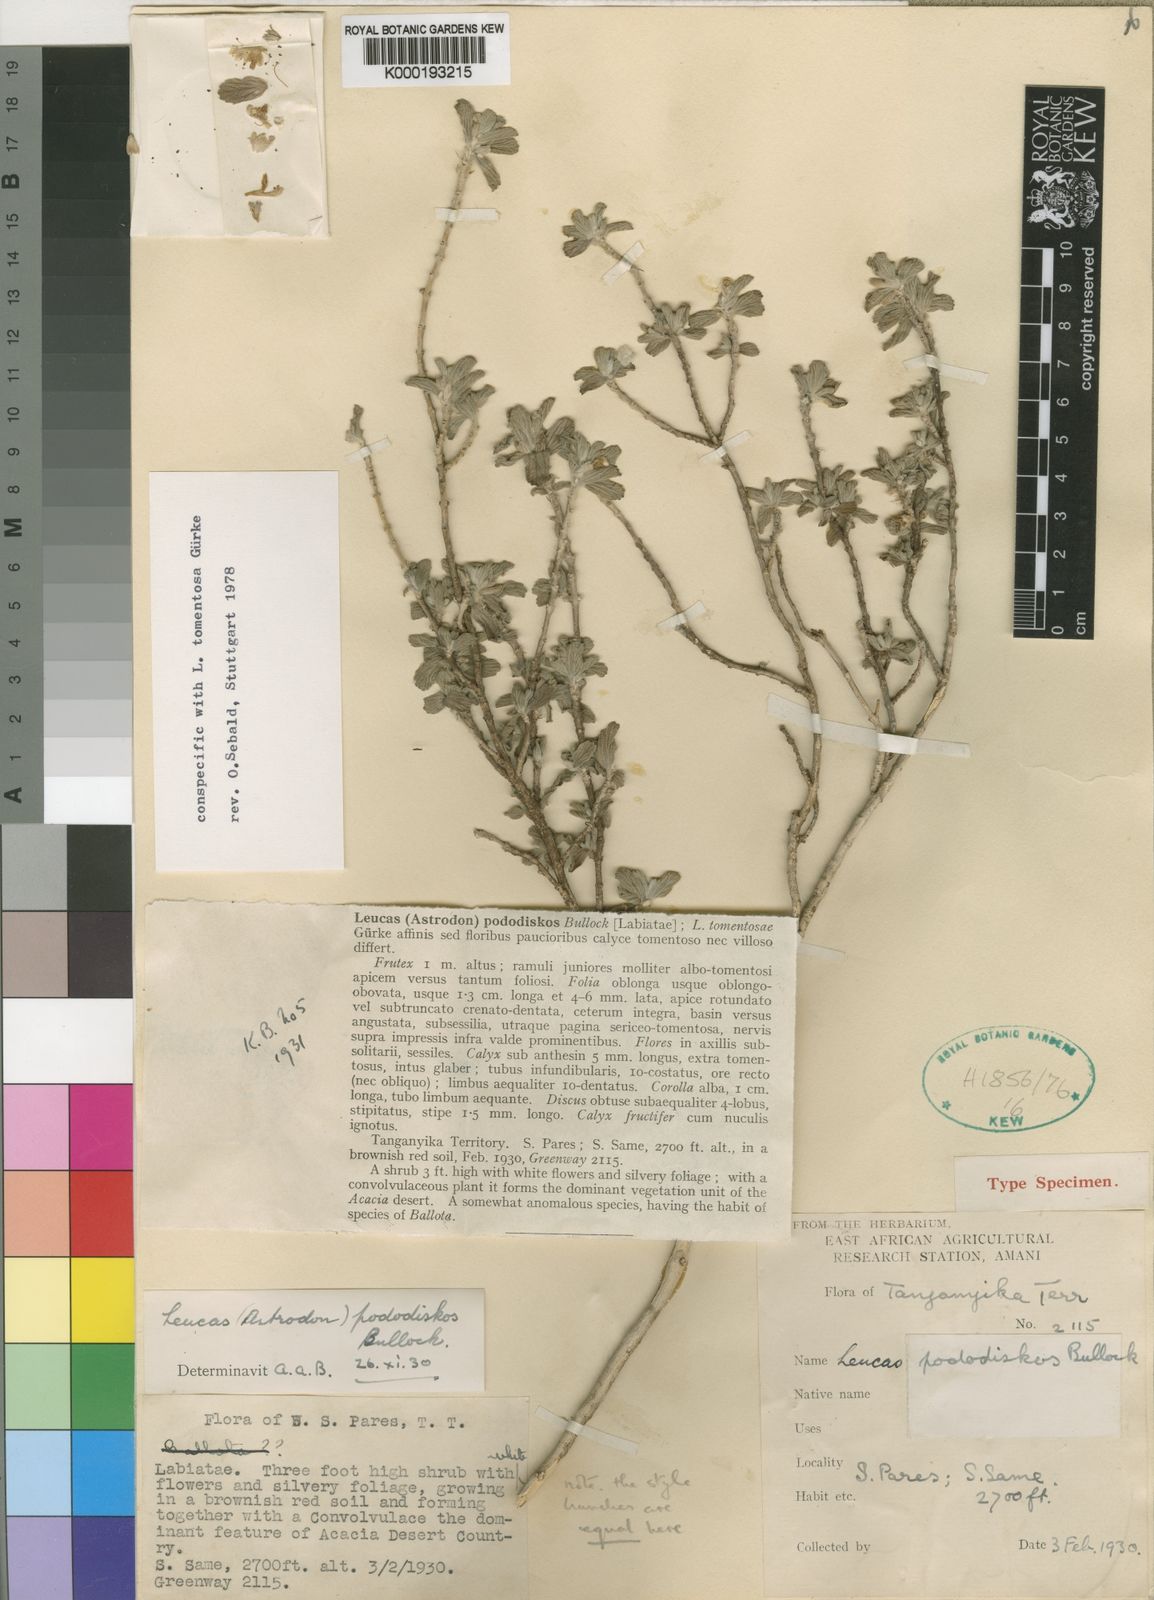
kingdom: Plantae
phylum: Tracheophyta
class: Magnoliopsida
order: Lamiales
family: Lamiaceae
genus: Leucas
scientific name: Leucas tomentosa
